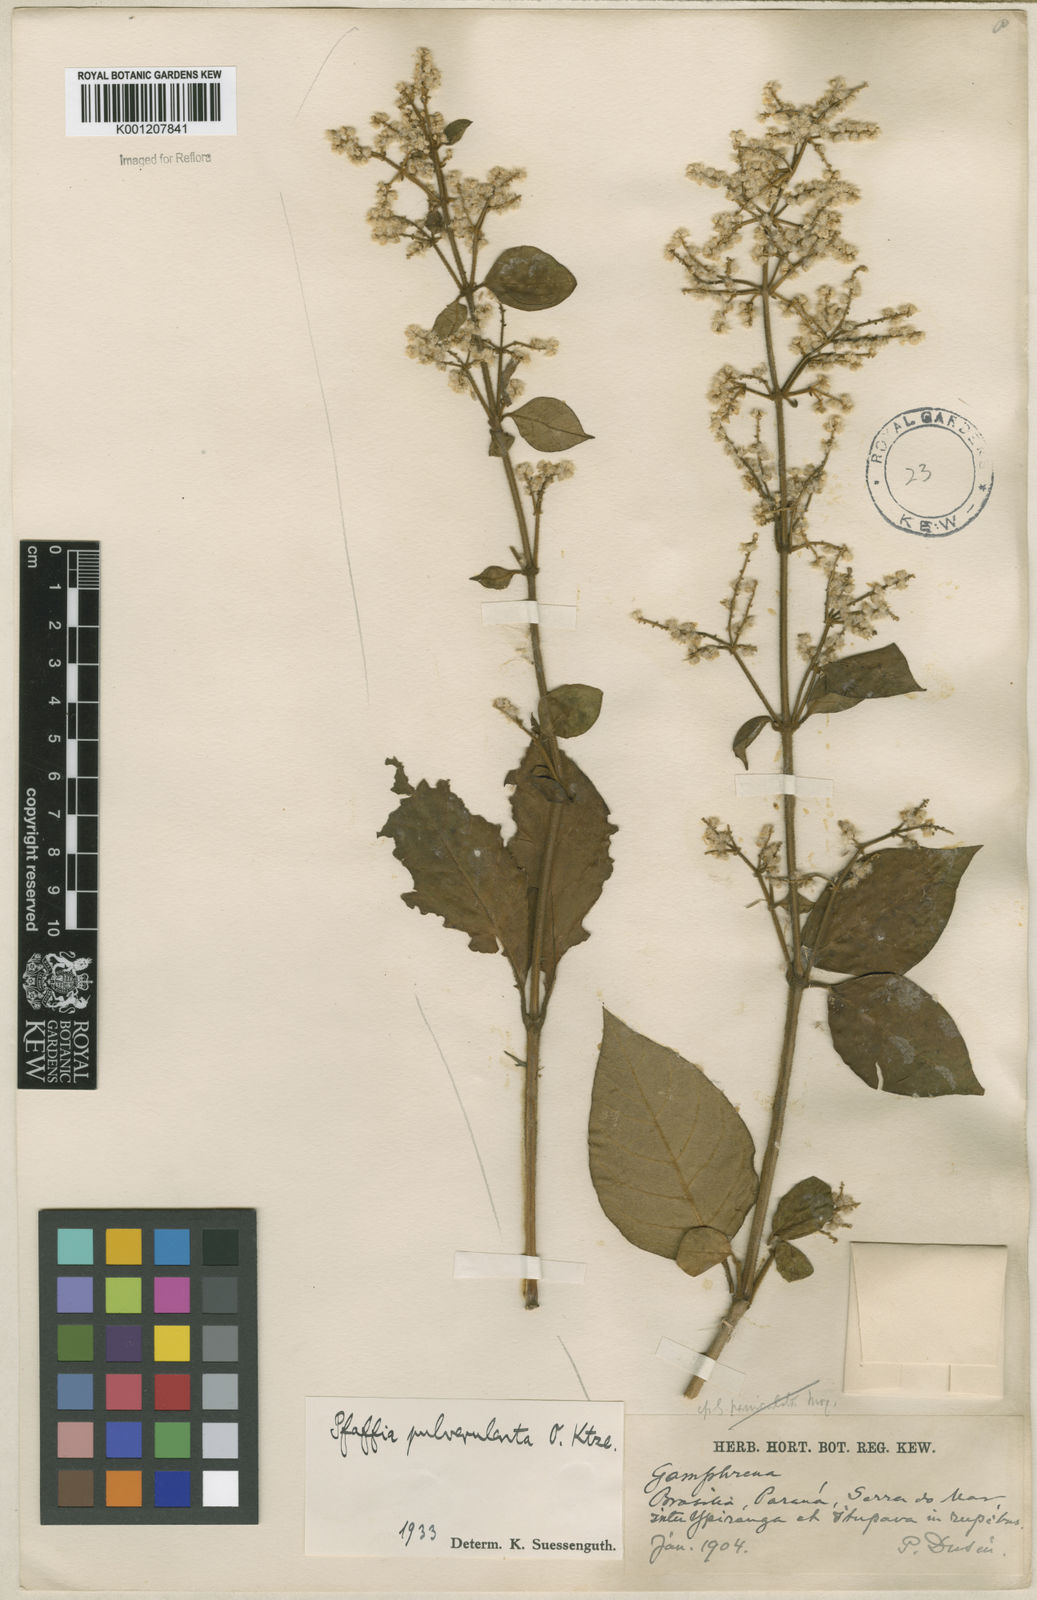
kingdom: Plantae
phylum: Tracheophyta
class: Magnoliopsida
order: Caryophyllales
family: Amaranthaceae
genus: Hebanthe
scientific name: Hebanthe pulverulenta
